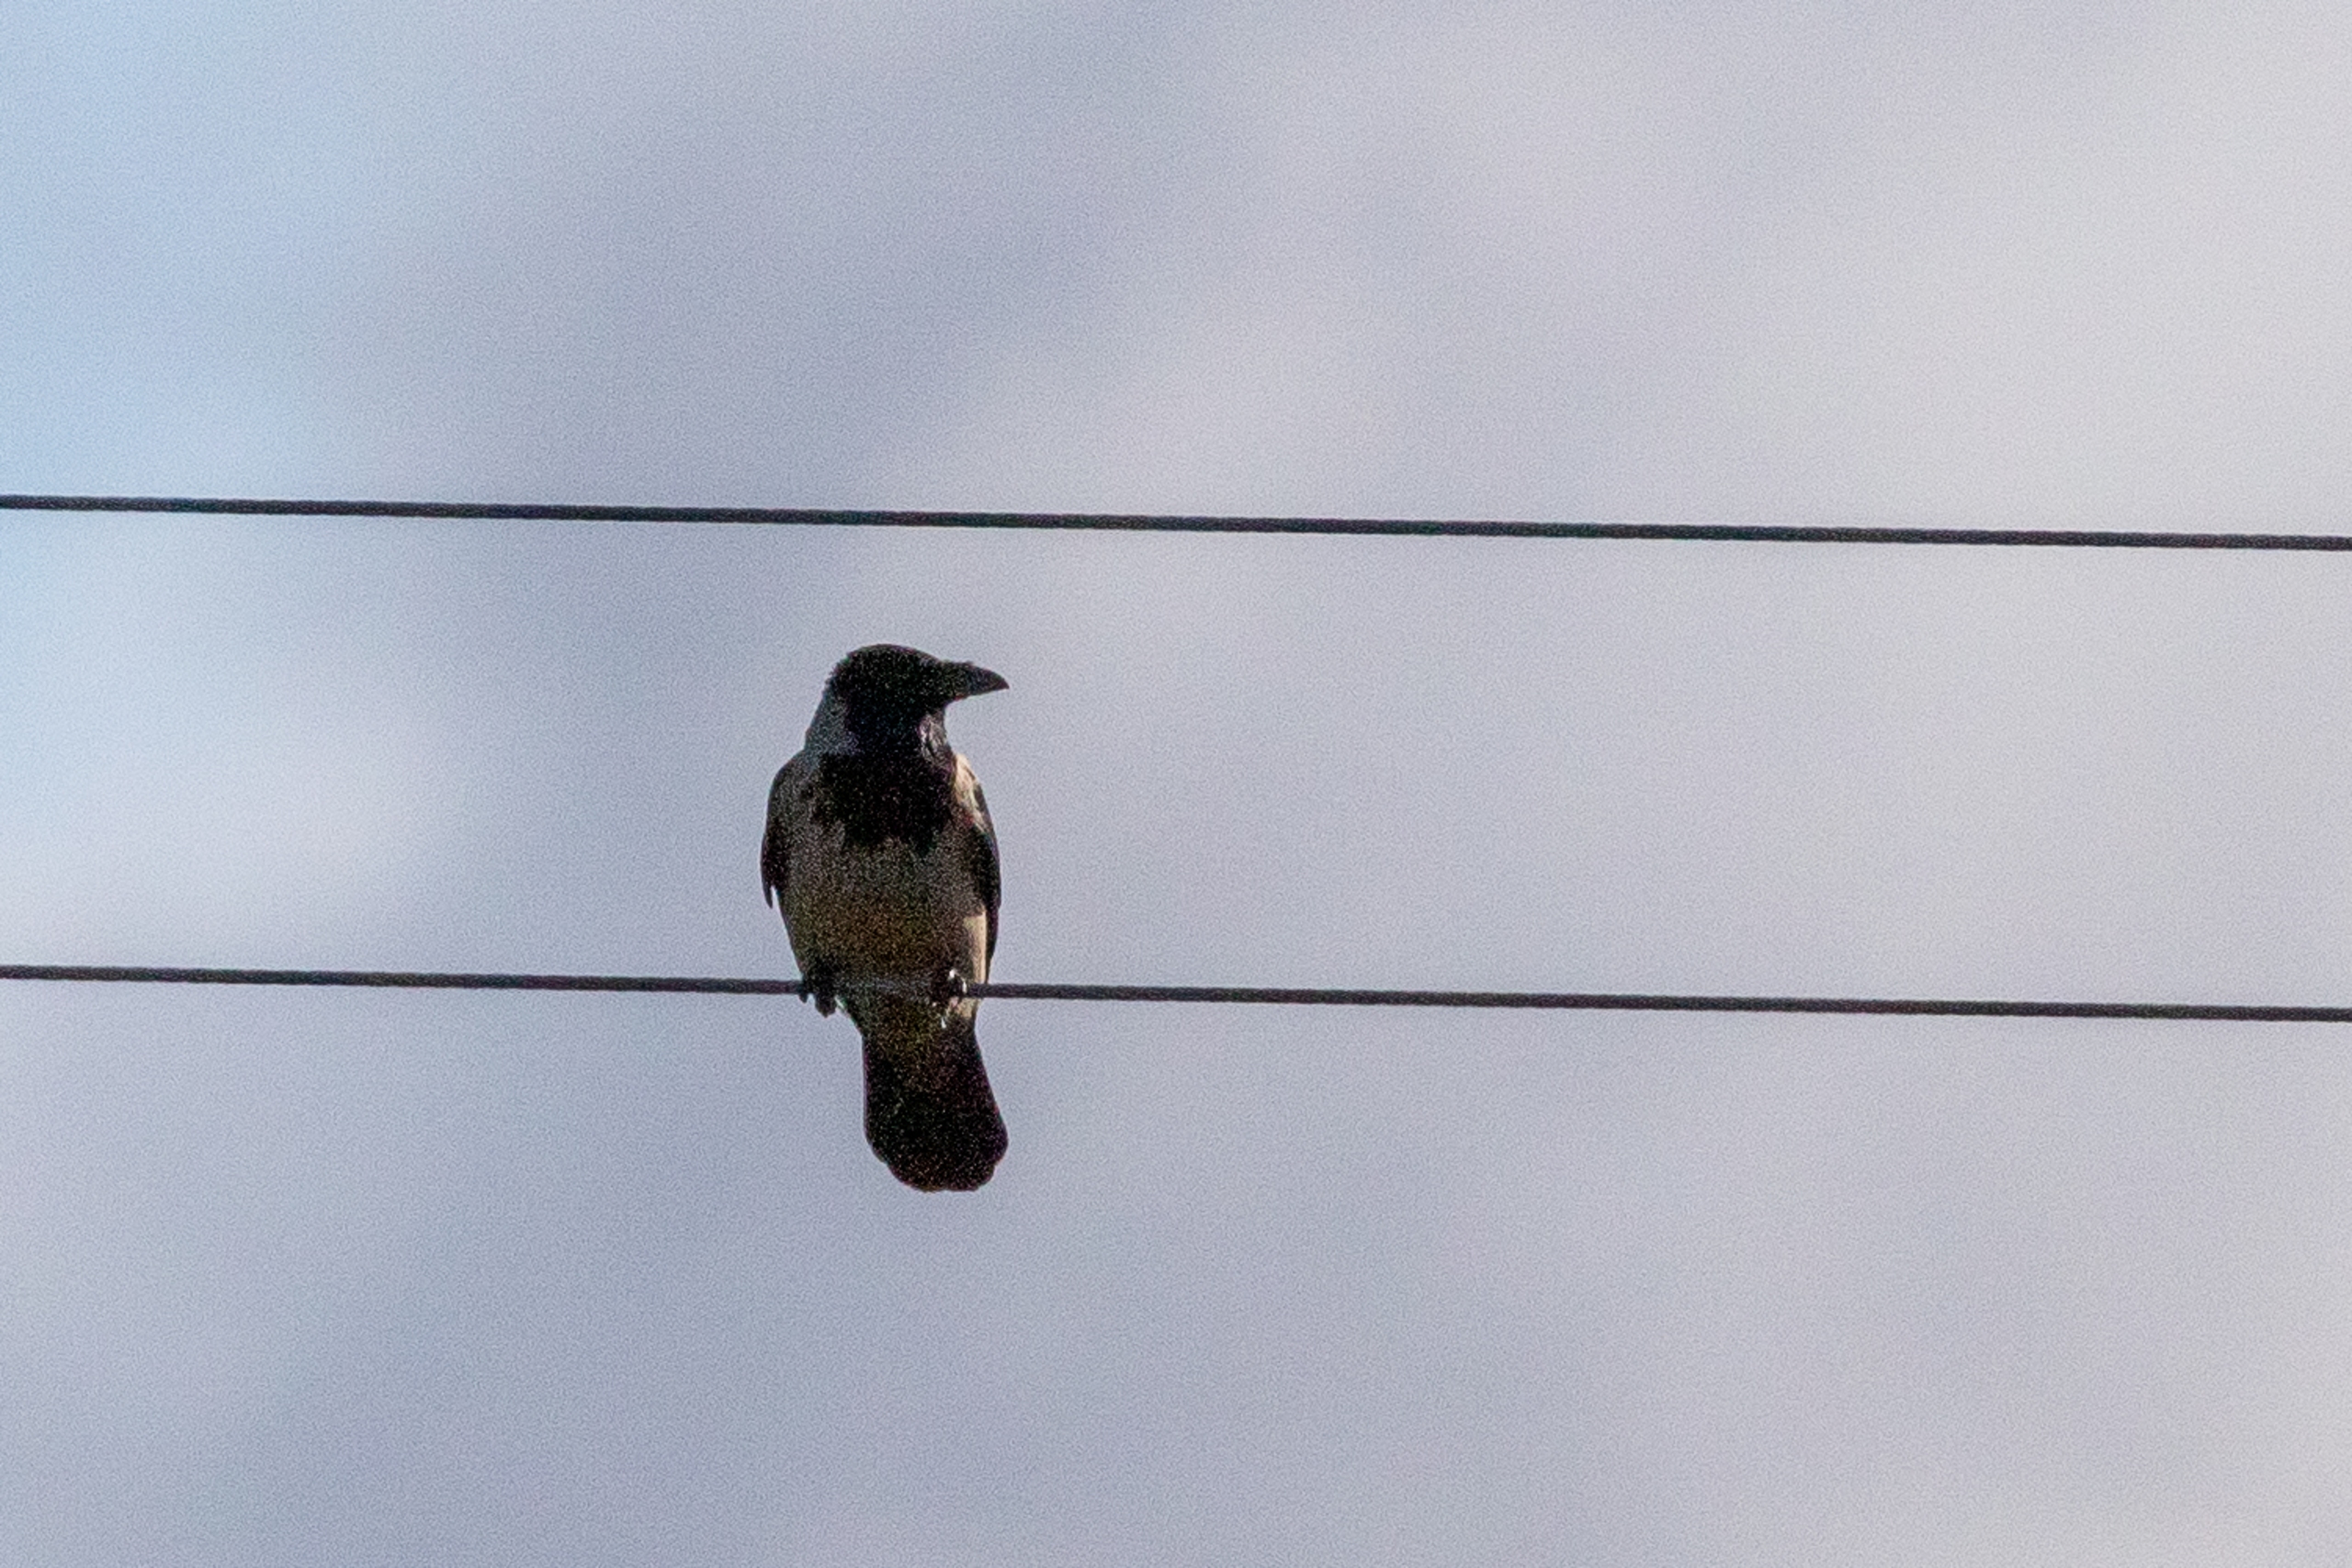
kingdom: Animalia
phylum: Chordata
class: Aves
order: Passeriformes
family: Corvidae
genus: Corvus
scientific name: Corvus cornix
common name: Gråkrage
